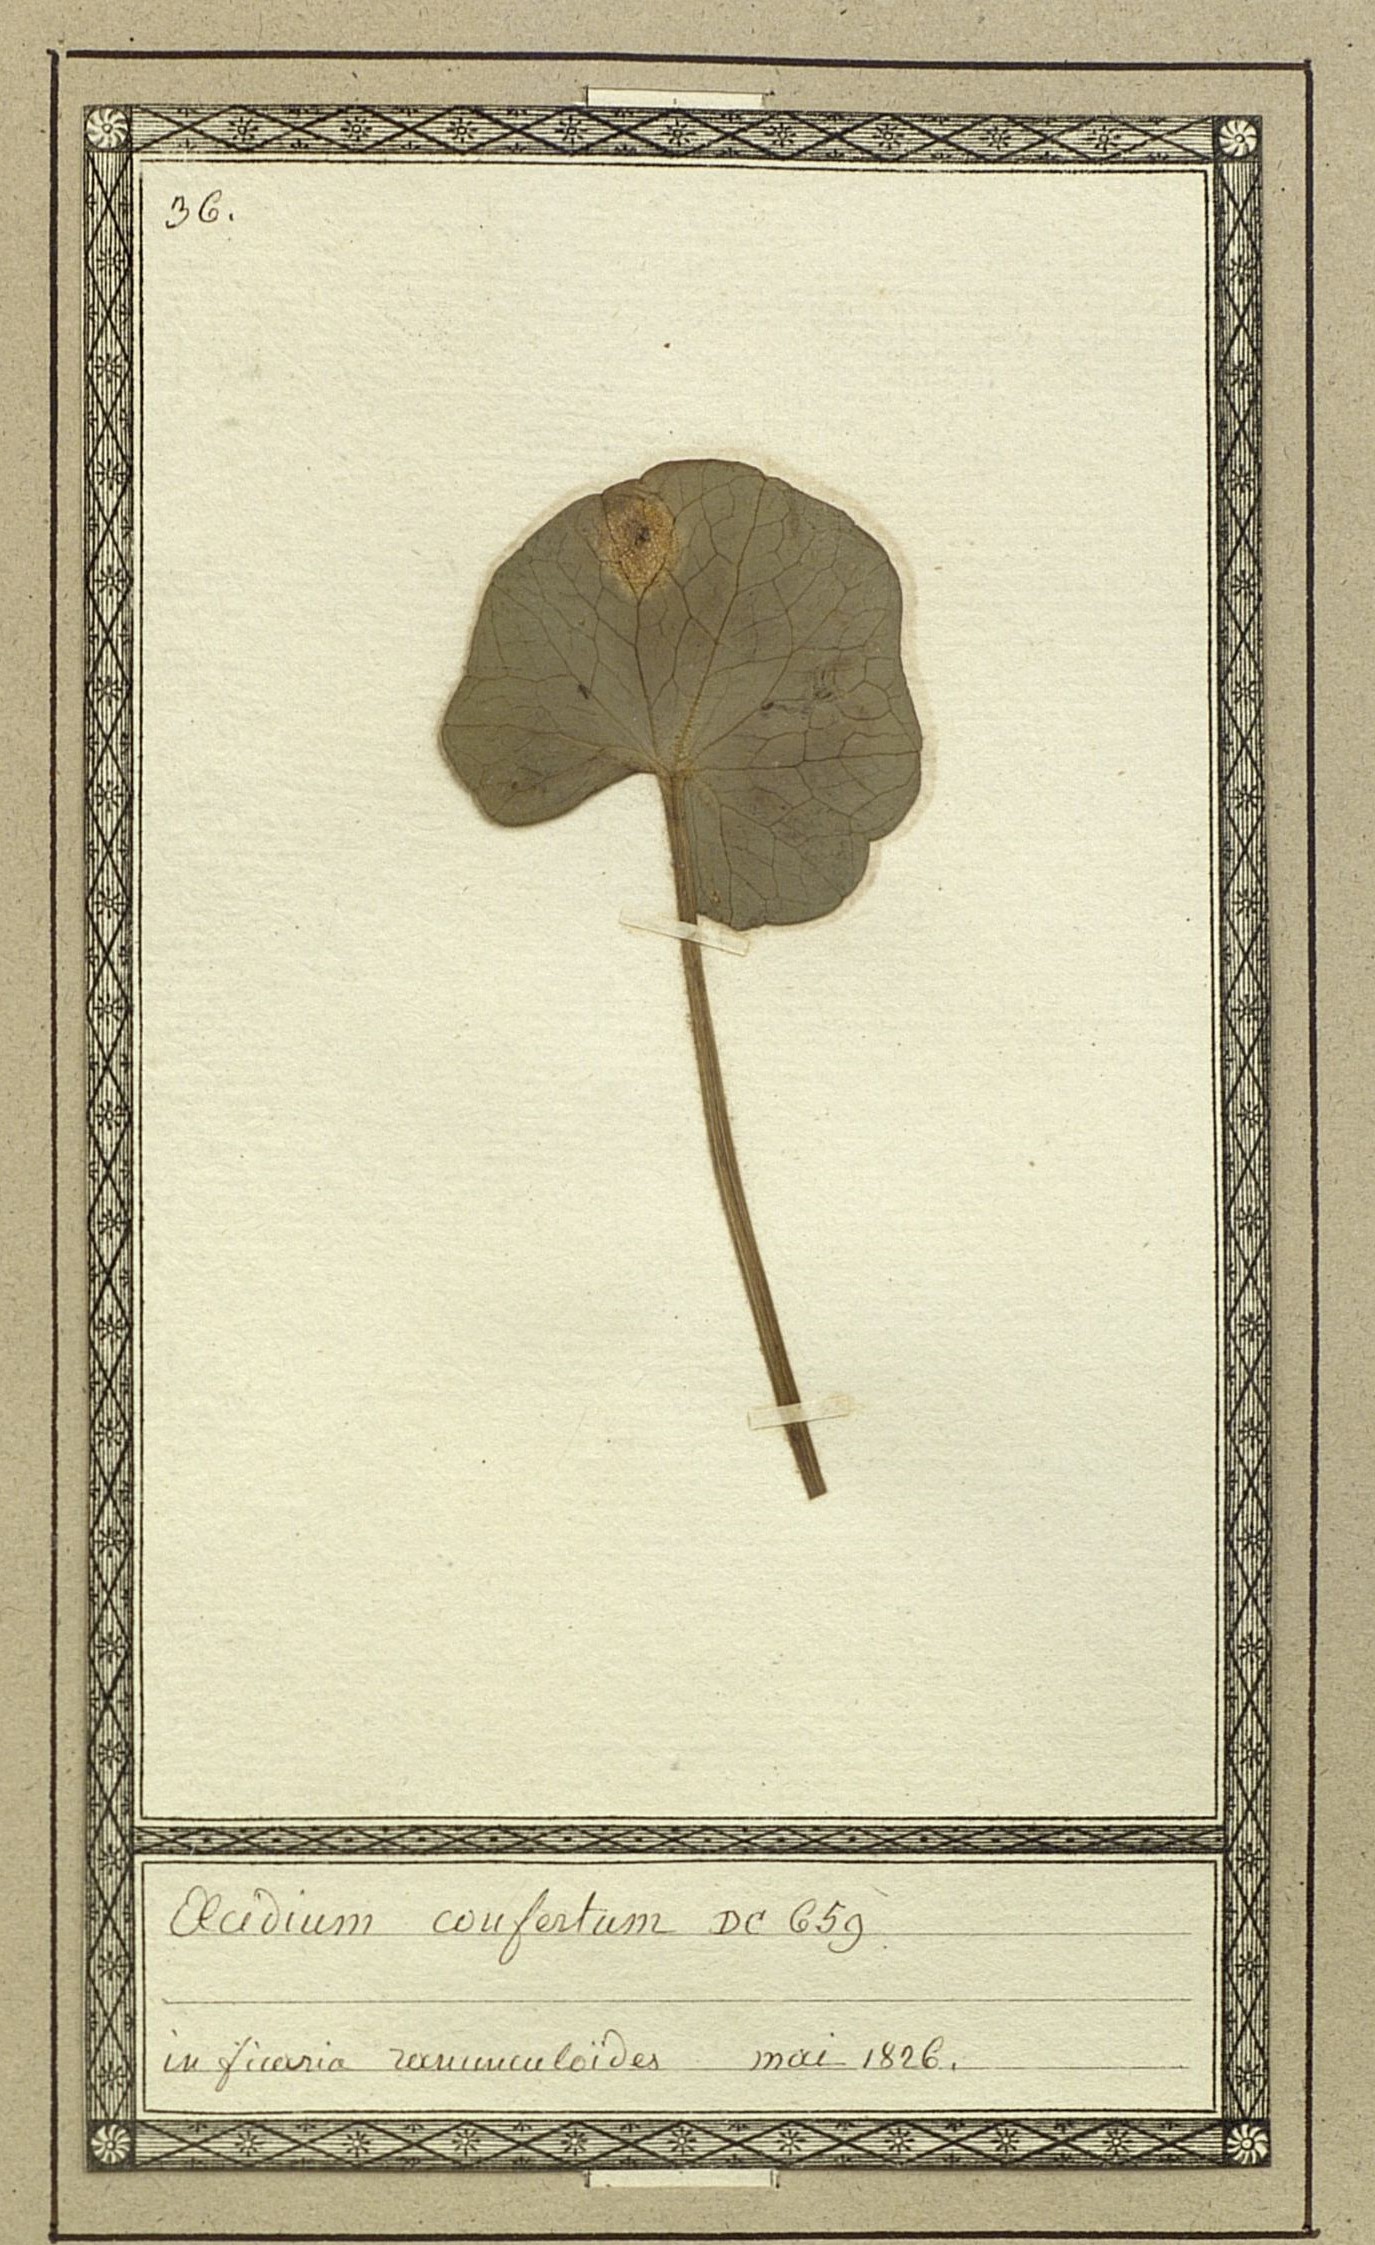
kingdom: Fungi
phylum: Basidiomycota
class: Pucciniomycetes
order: Pucciniales
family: Pucciniaceae
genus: Aecidium
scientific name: Aecidium confertum
